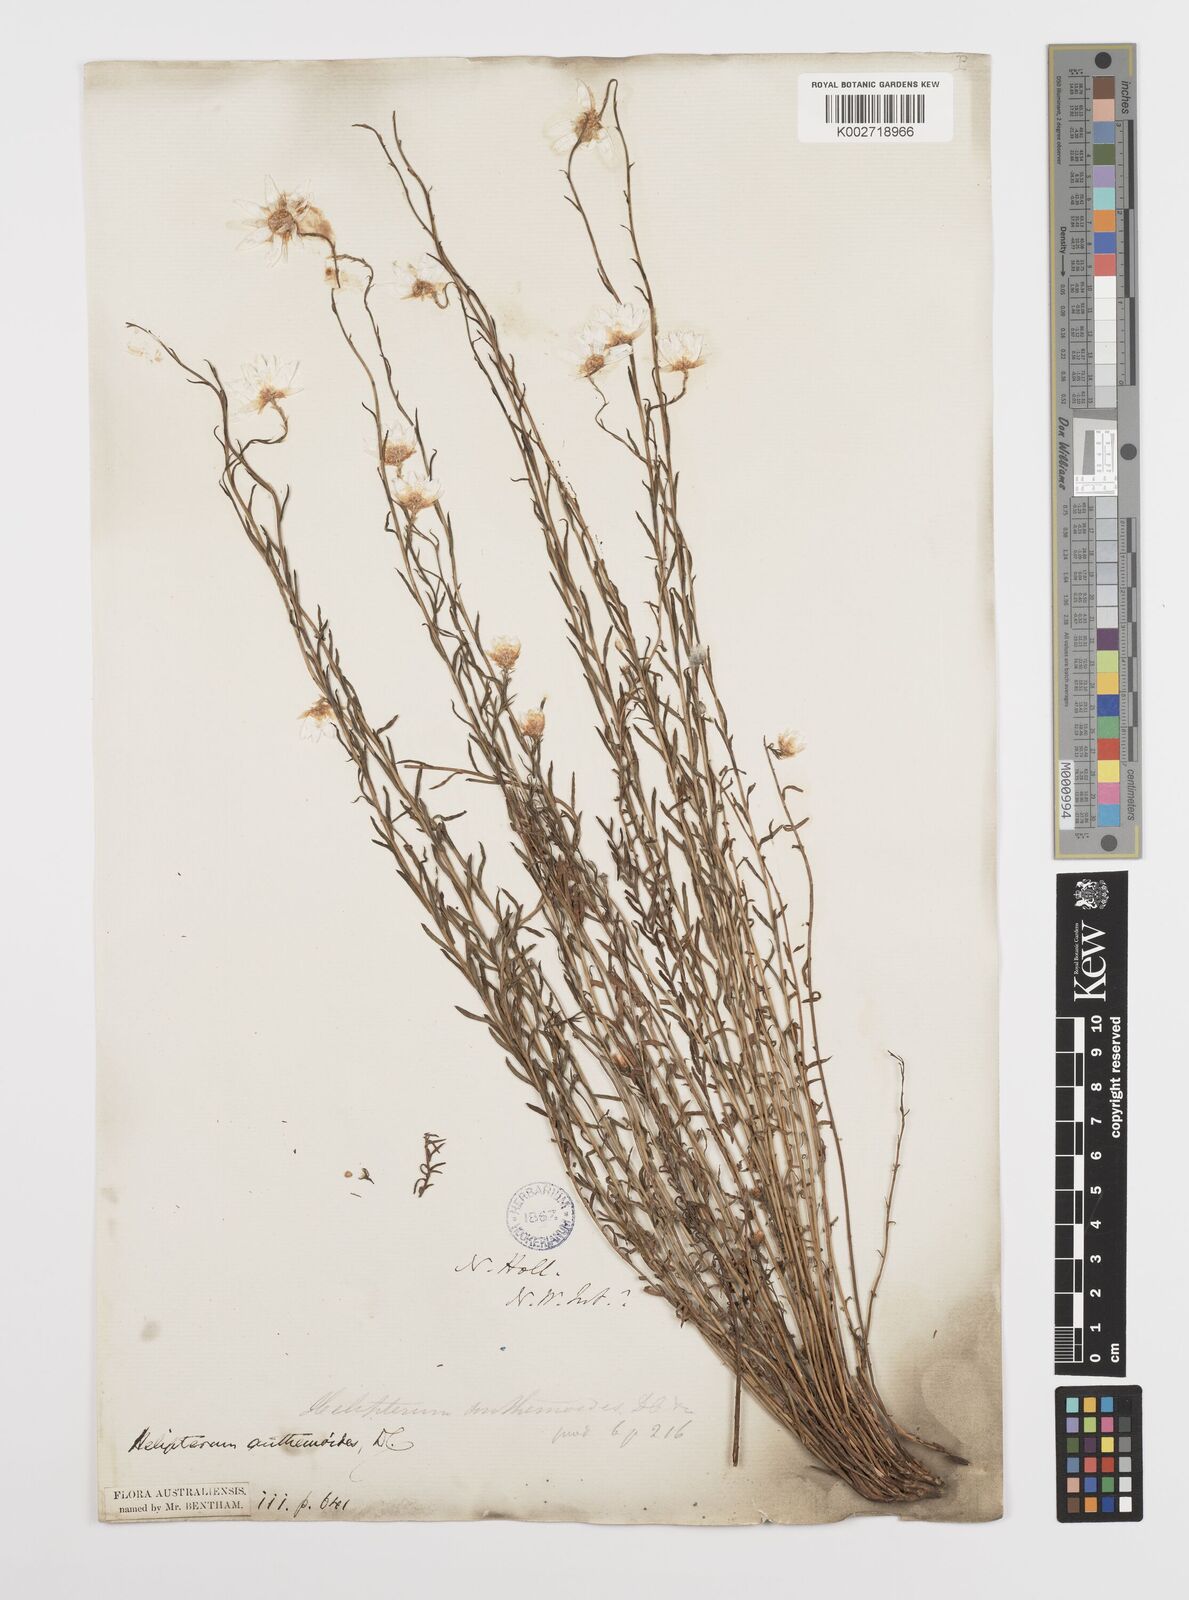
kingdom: Plantae
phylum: Tracheophyta
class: Magnoliopsida
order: Asterales
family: Asteraceae
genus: Rhodanthe
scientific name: Rhodanthe anthemoides
